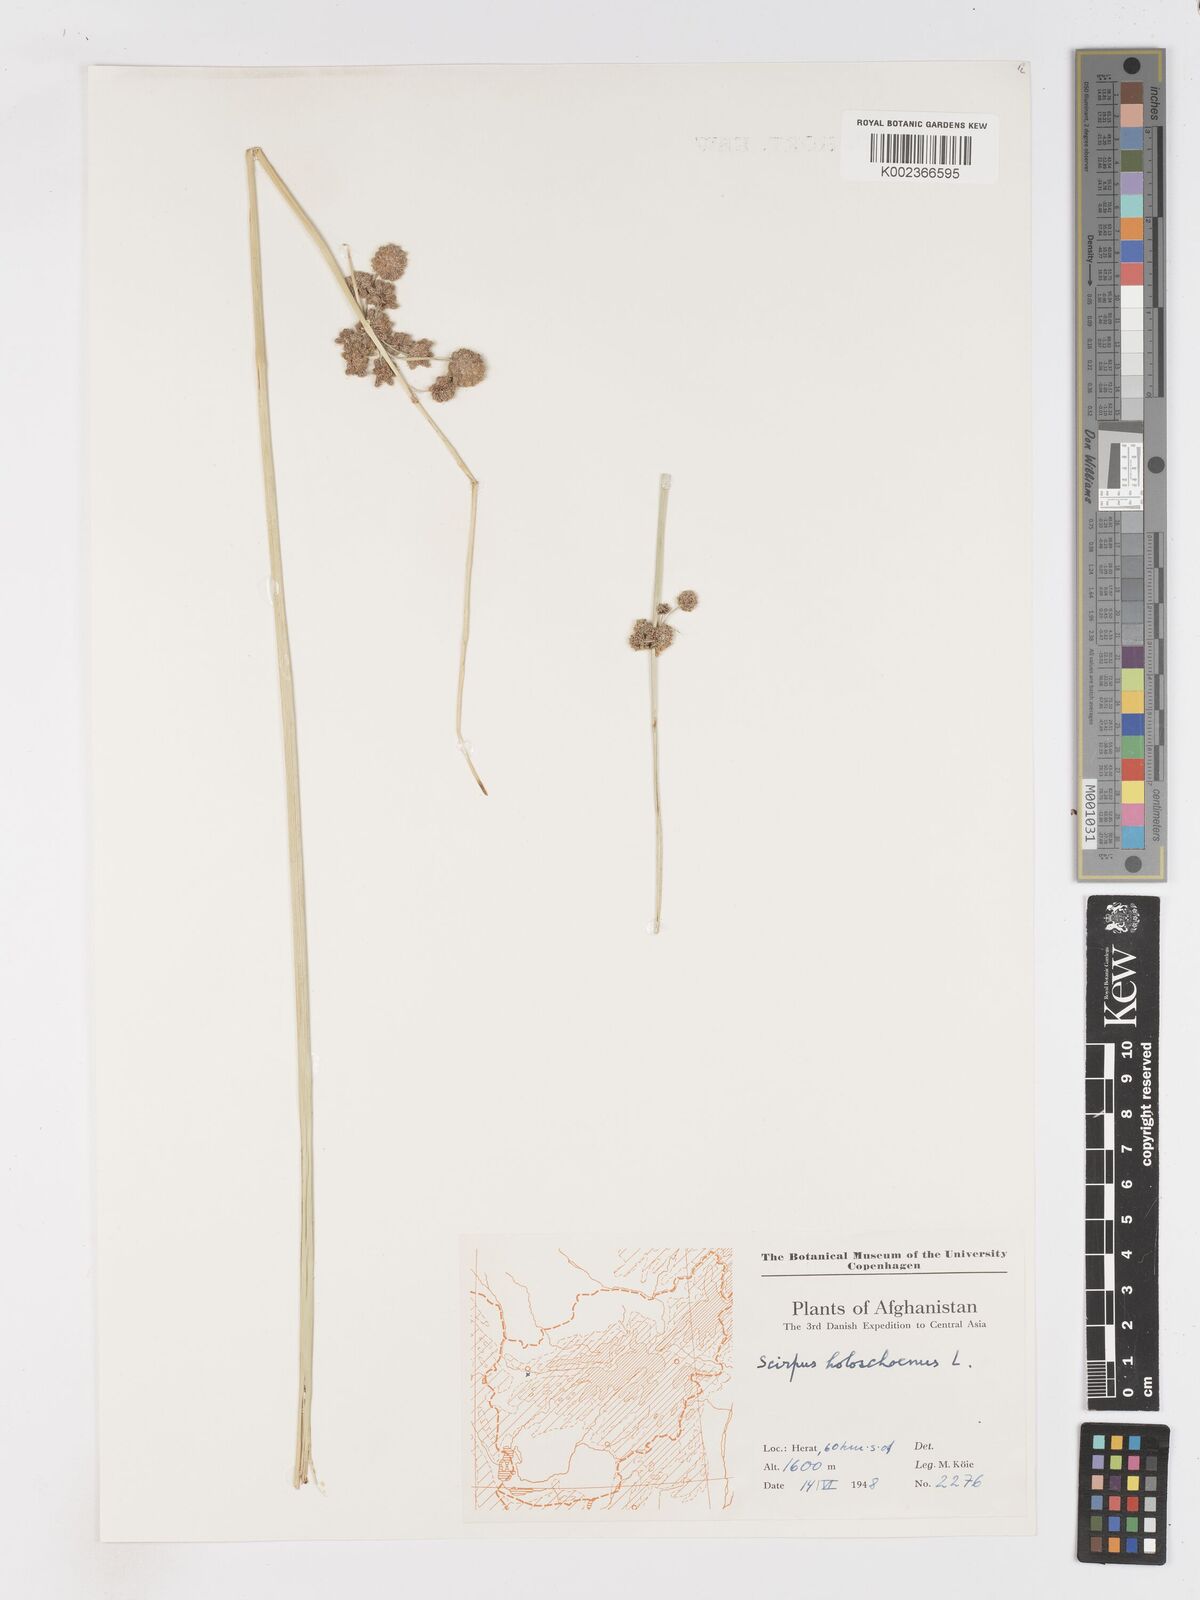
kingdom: Plantae
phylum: Tracheophyta
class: Liliopsida
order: Poales
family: Cyperaceae
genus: Scirpoides
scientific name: Scirpoides holoschoenus
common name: Round-headed club-rush
